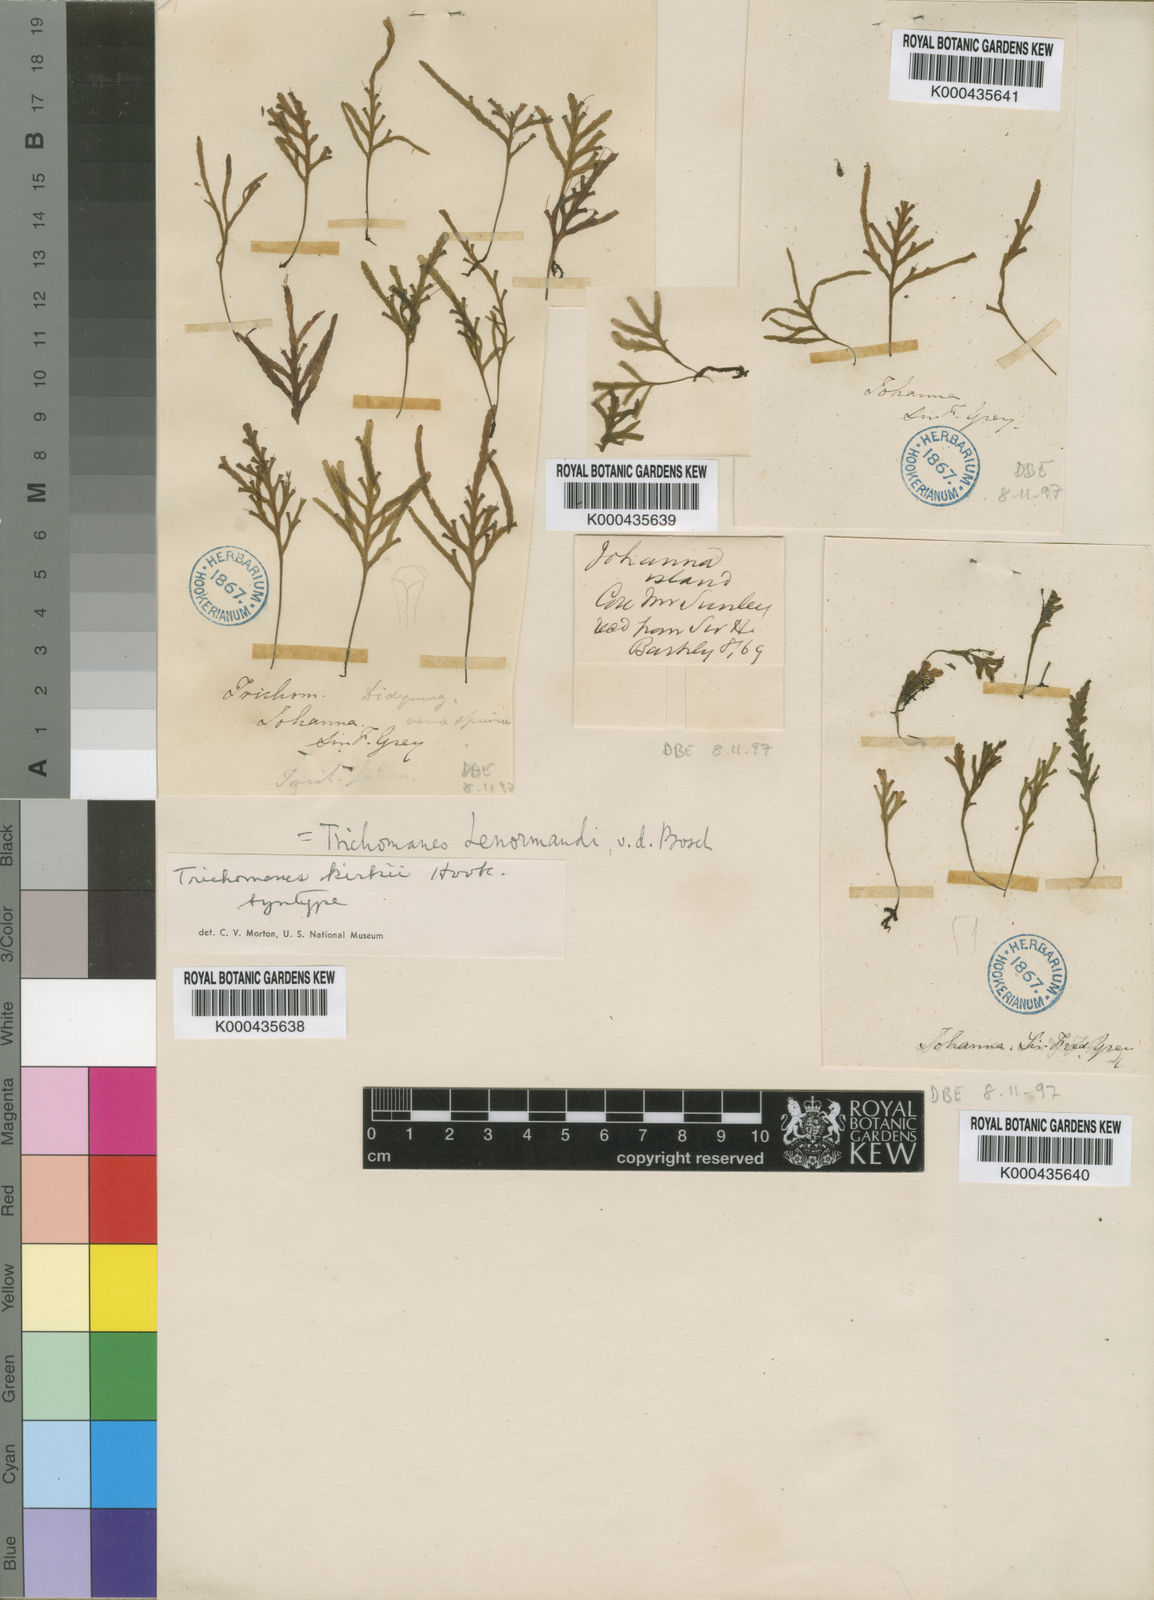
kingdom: Plantae
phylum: Tracheophyta
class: Polypodiopsida
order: Hymenophyllales
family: Hymenophyllaceae
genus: Didymoglossum
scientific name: Didymoglossum kirkii
